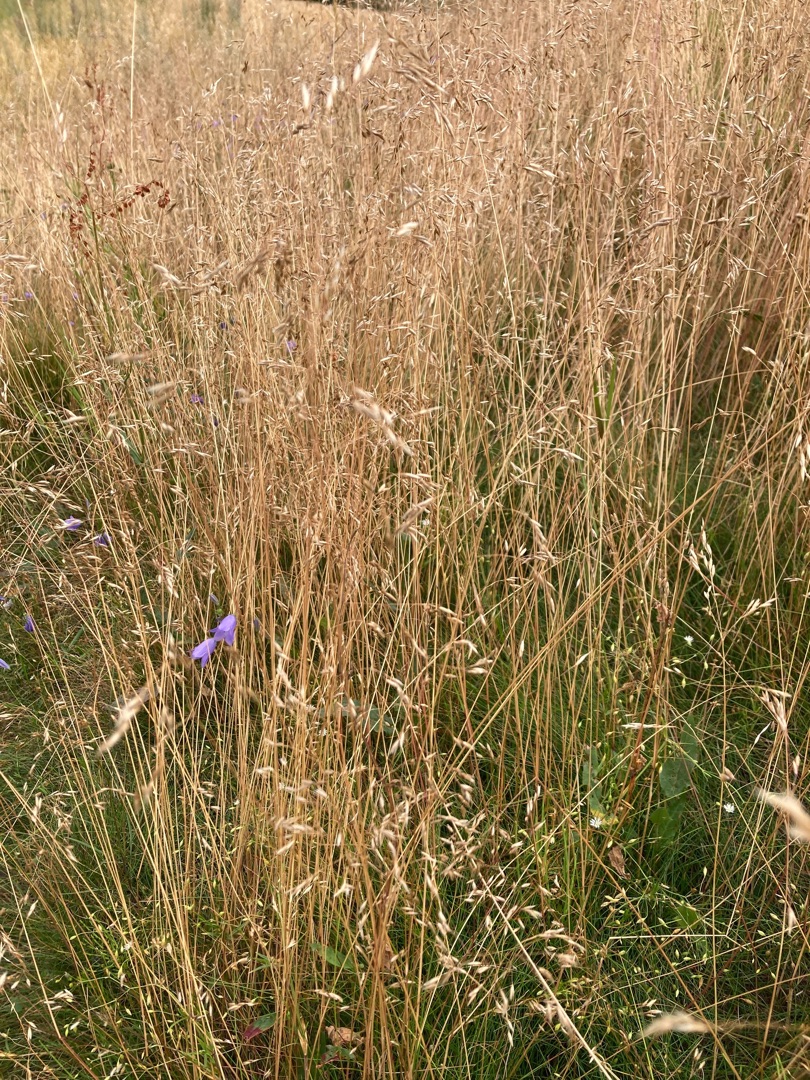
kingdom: Plantae
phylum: Tracheophyta
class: Liliopsida
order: Poales
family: Poaceae
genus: Avenella
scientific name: Avenella flexuosa
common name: Bølget bunke
